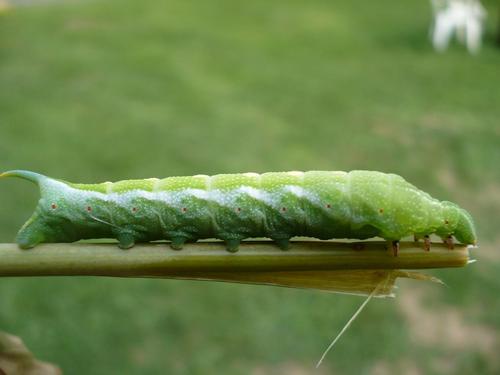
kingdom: Animalia
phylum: Arthropoda
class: Insecta
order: Lepidoptera
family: Sphingidae
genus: Darapsa
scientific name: Darapsa myron
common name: Hog sphinx
